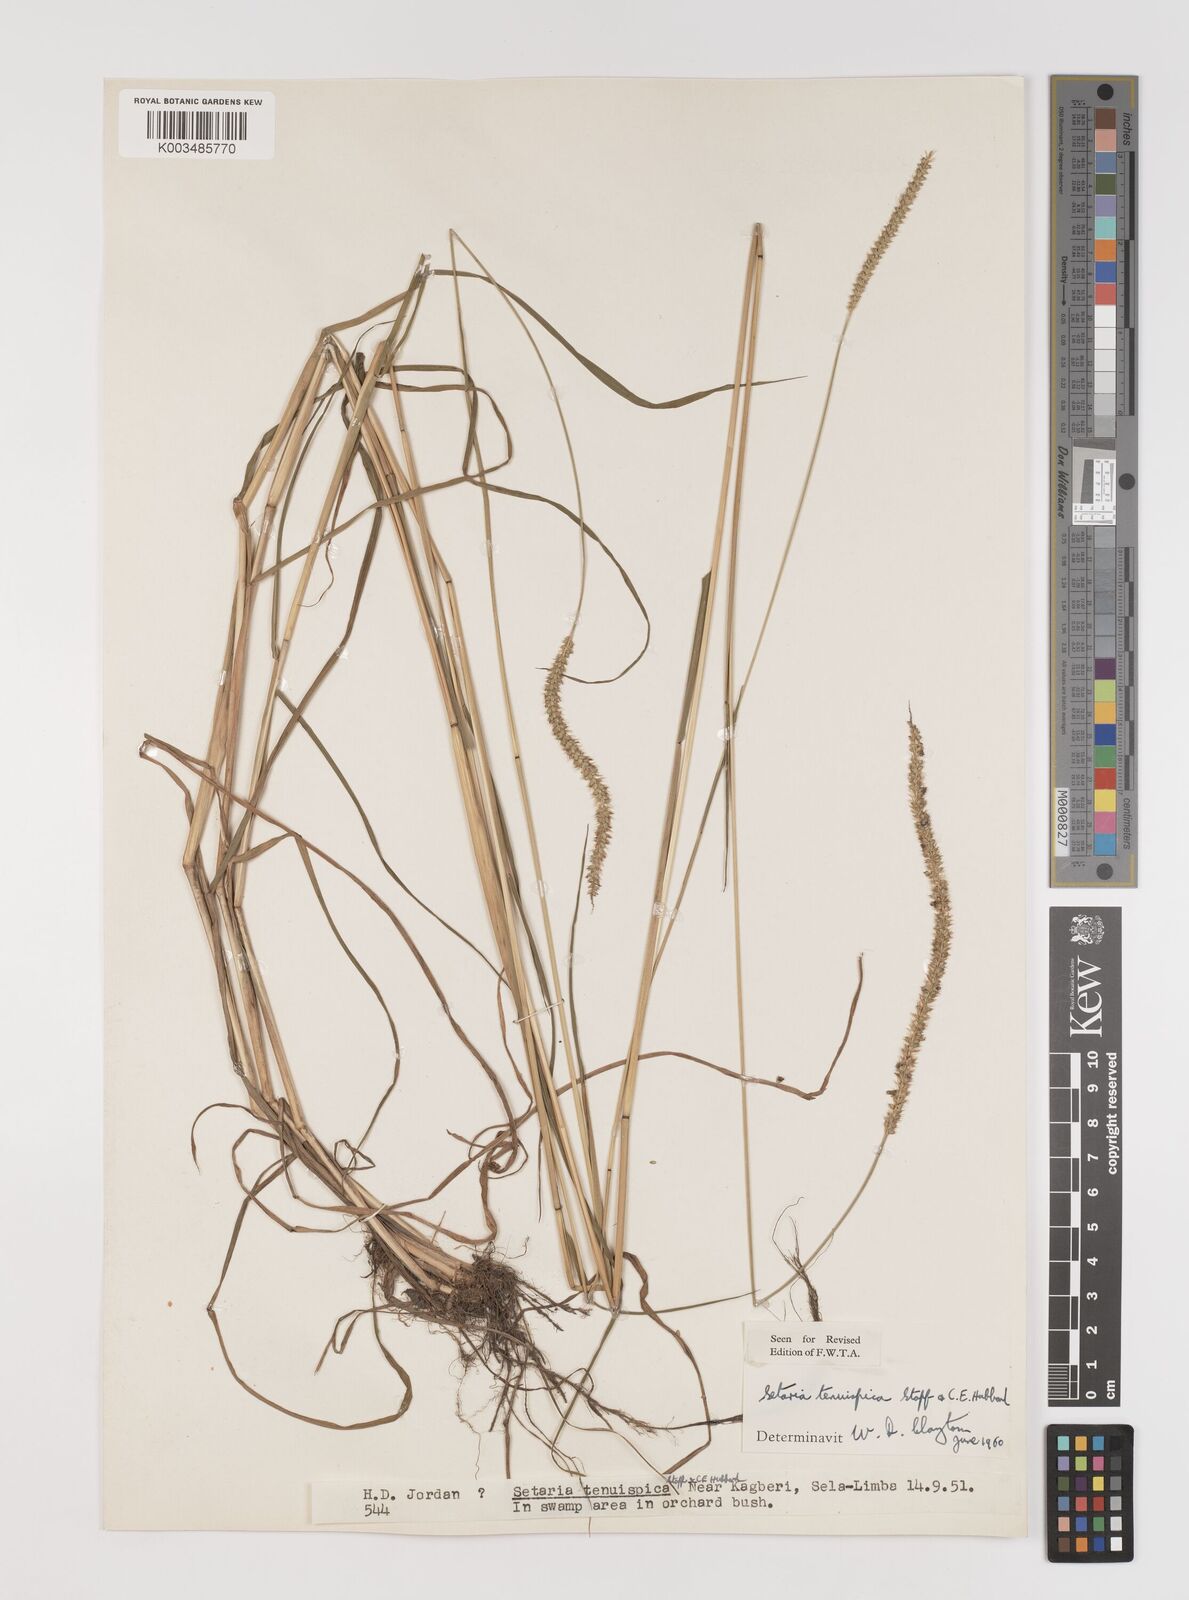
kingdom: Plantae
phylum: Tracheophyta
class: Liliopsida
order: Poales
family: Poaceae
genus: Setaria
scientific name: Setaria sphacelata
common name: African bristlegrass
